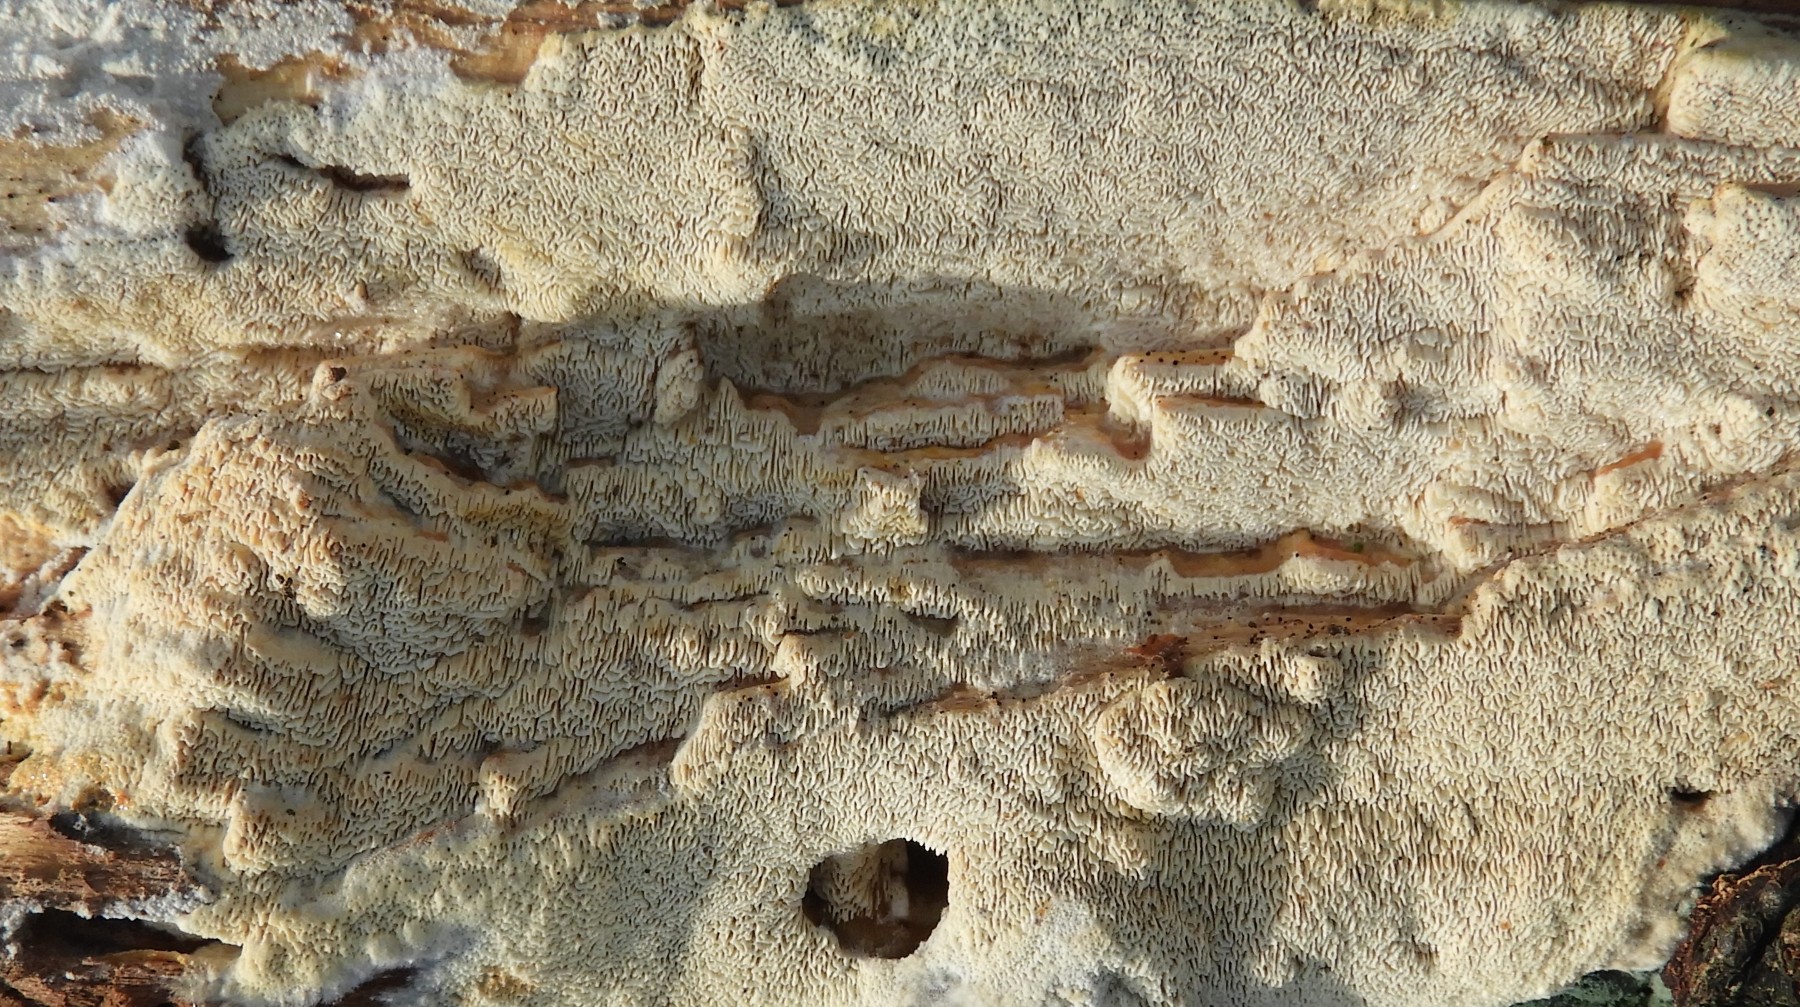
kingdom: Fungi
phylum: Basidiomycota
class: Agaricomycetes
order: Hymenochaetales
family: Schizoporaceae
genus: Xylodon
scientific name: Xylodon subtropicus
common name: labyrint-tandsvamp
